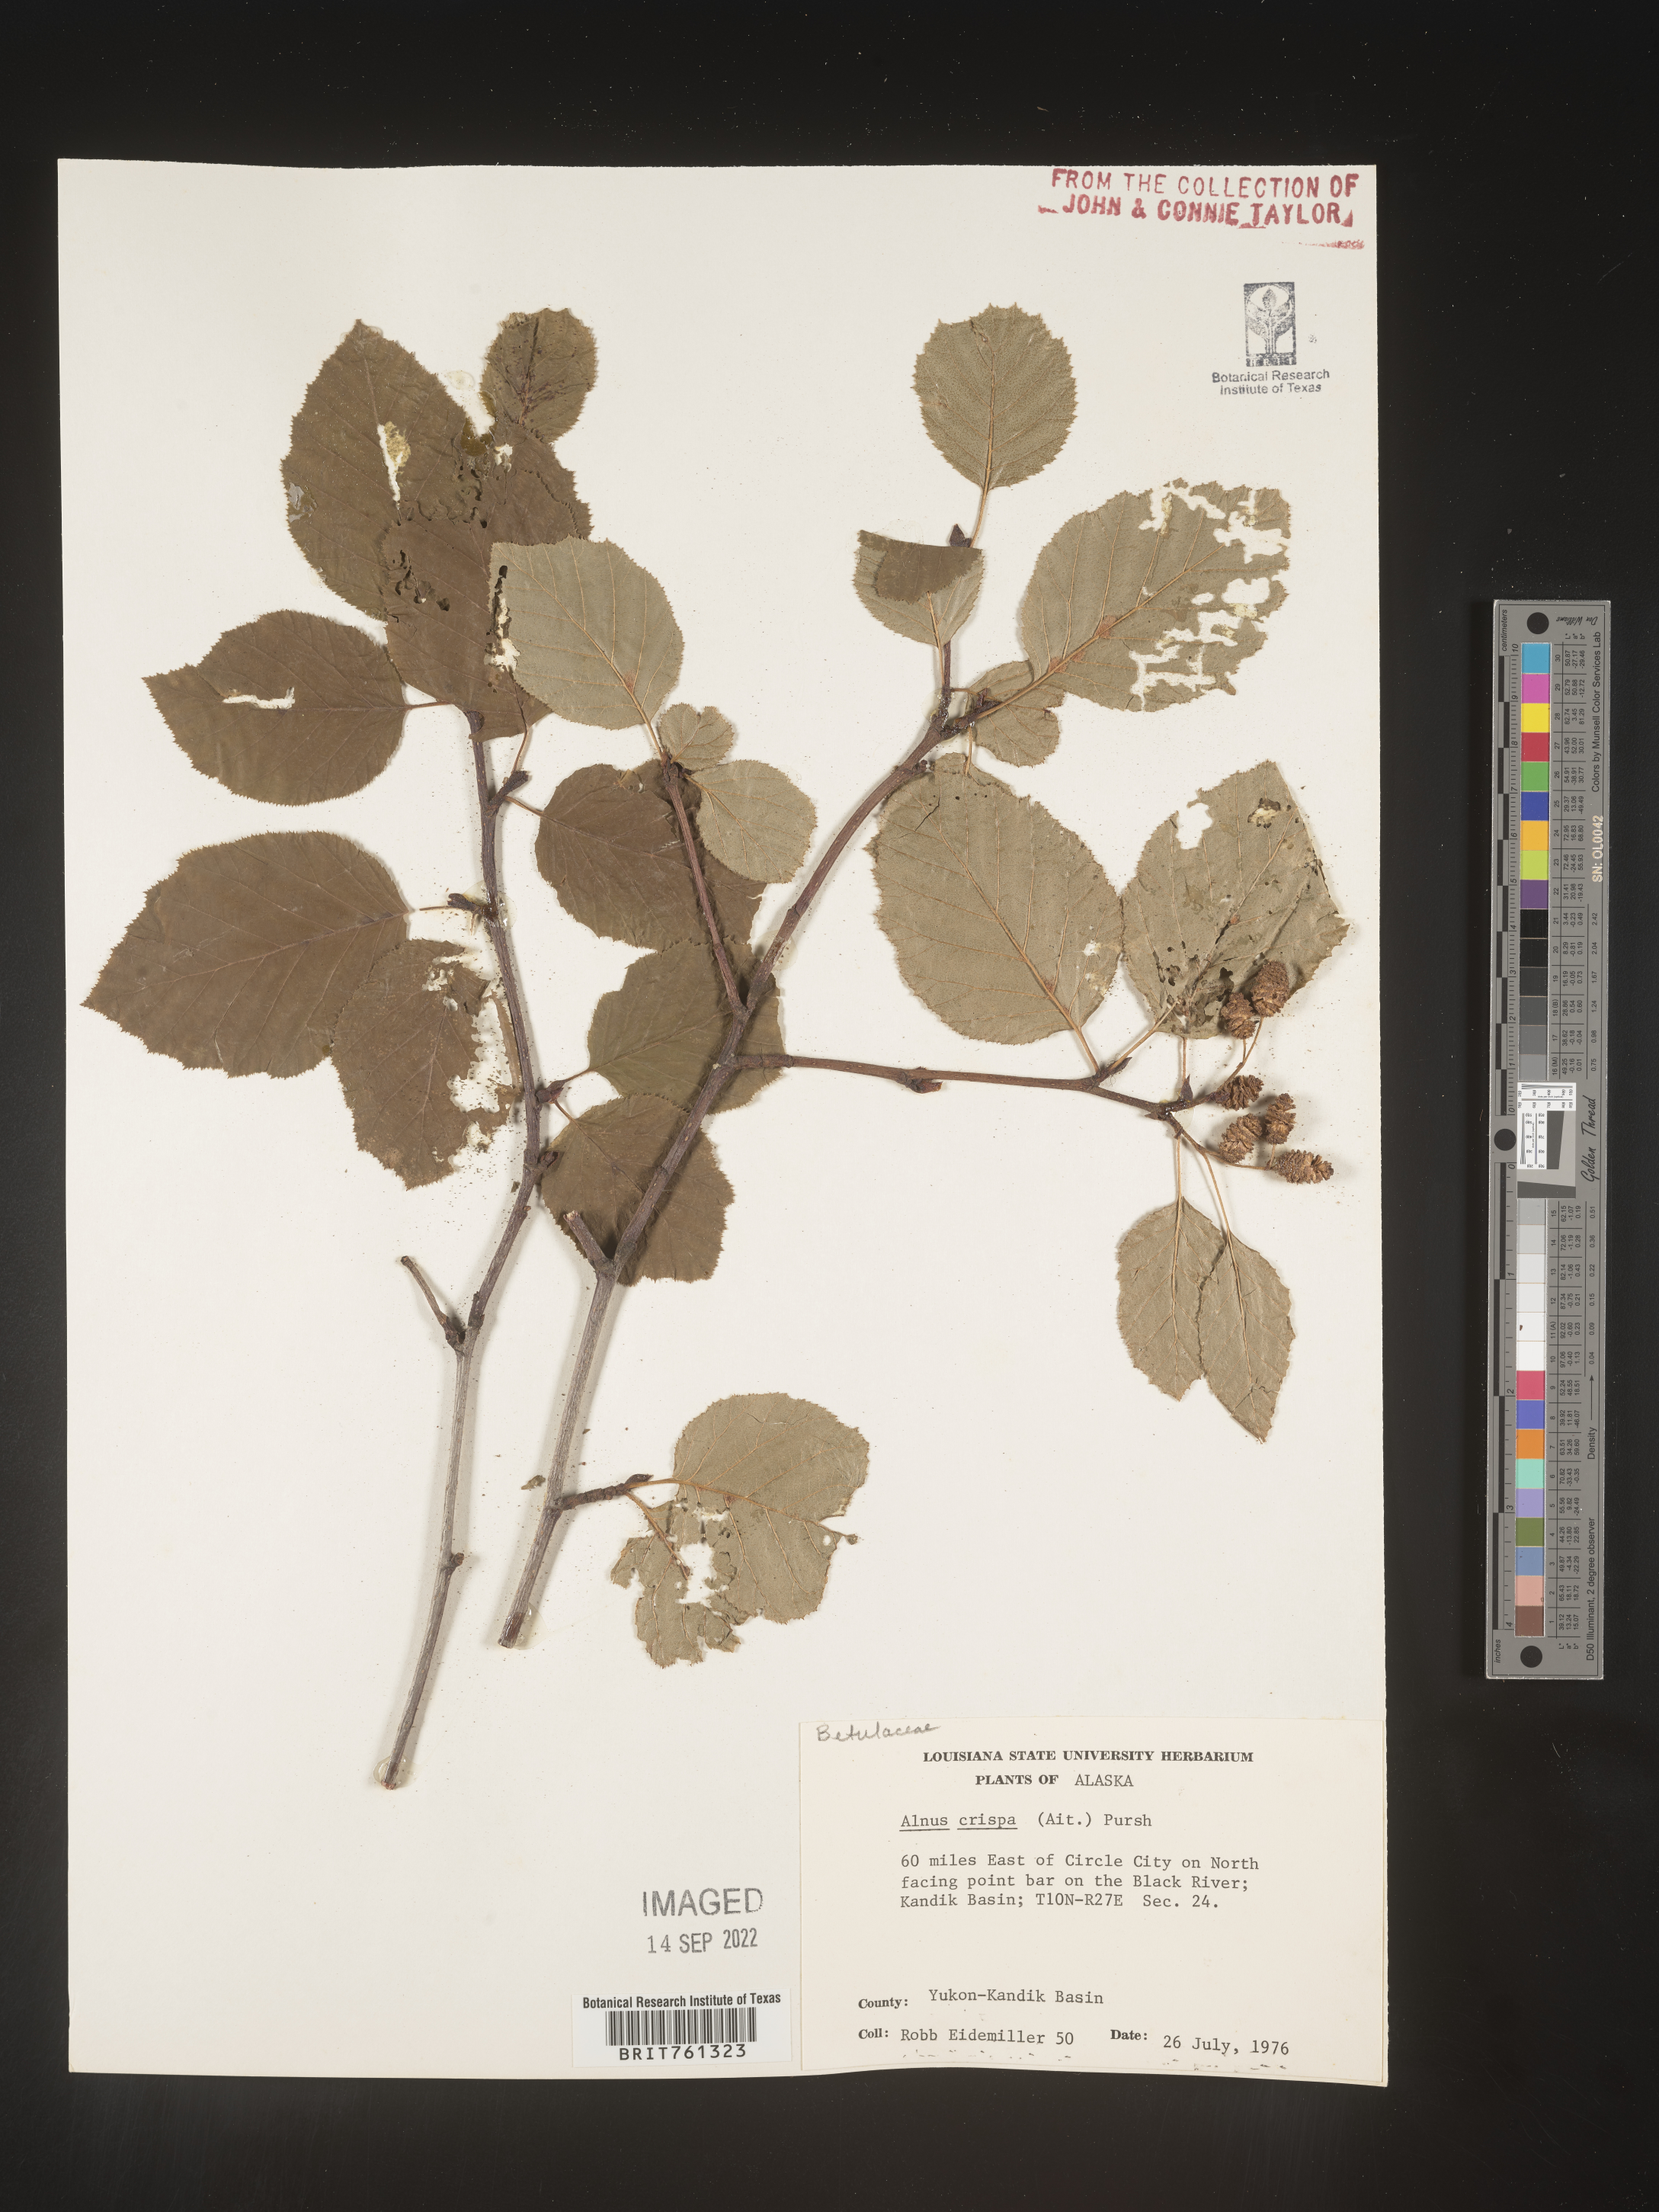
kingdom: Plantae
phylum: Tracheophyta
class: Magnoliopsida
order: Fagales
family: Betulaceae
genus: Alnus
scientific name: Alnus
